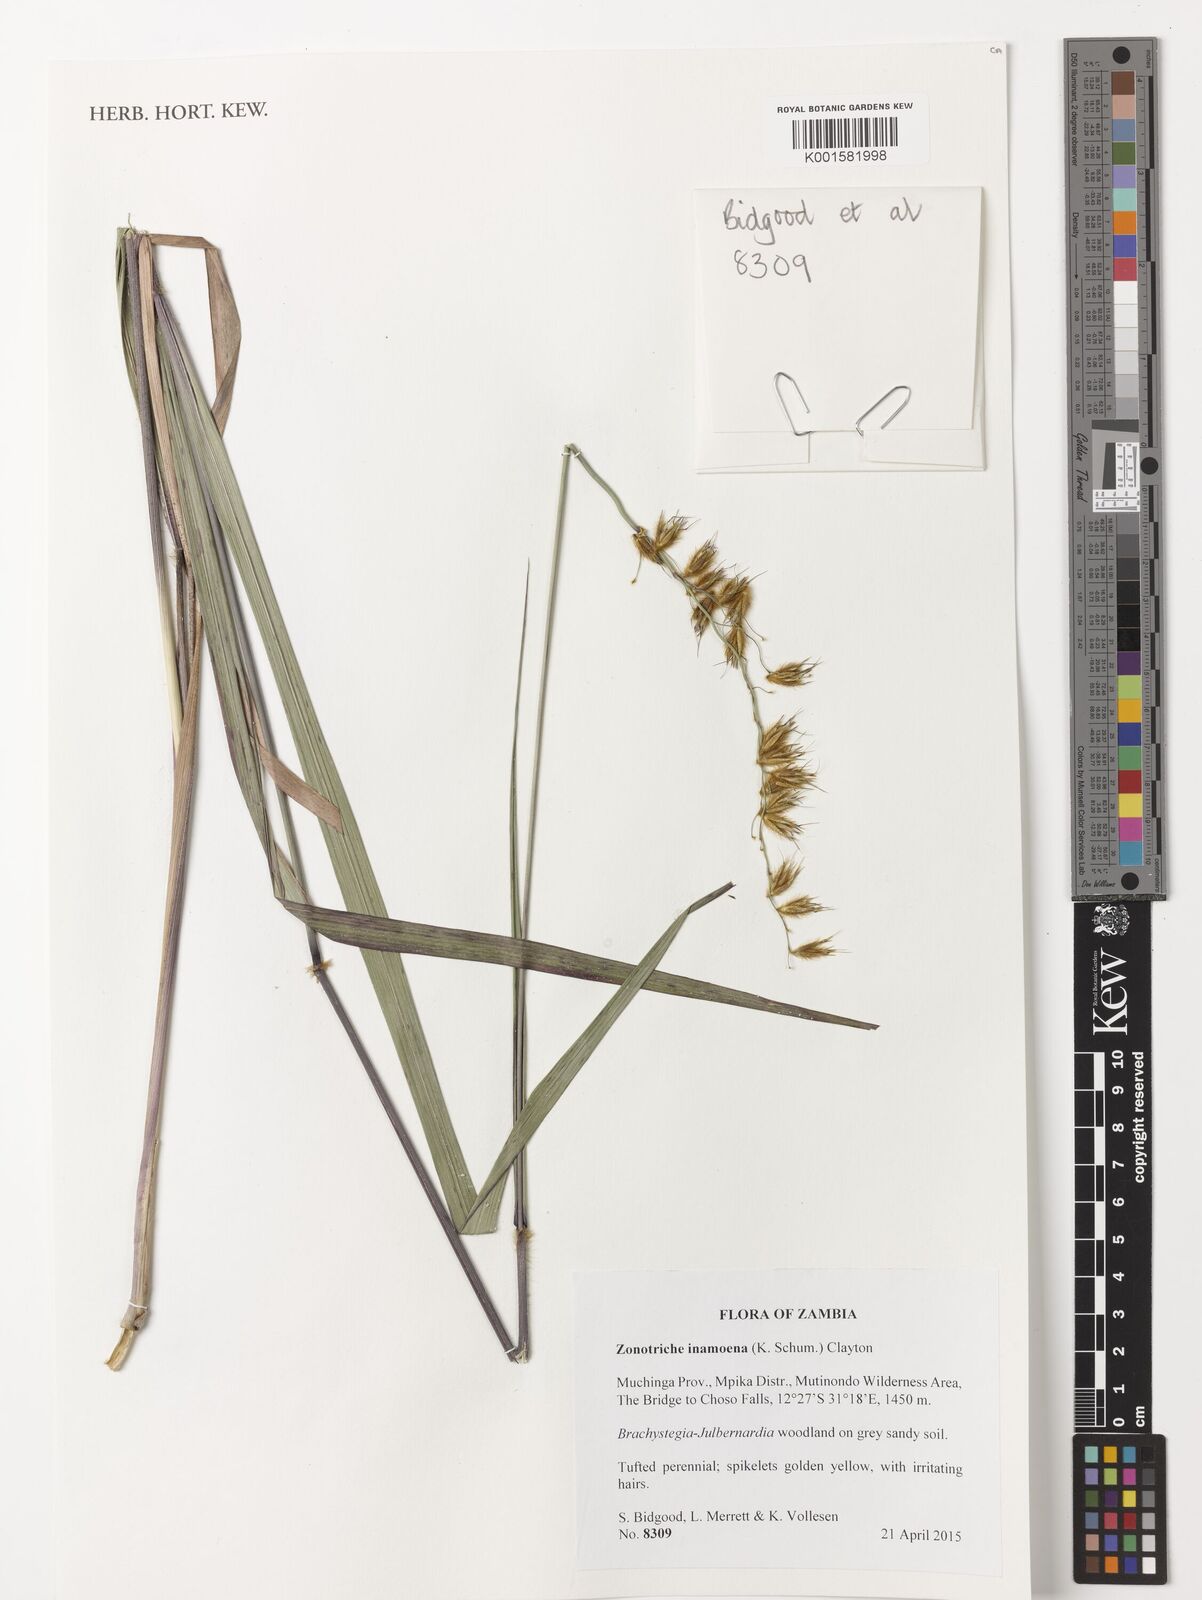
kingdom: Plantae
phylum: Tracheophyta
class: Liliopsida
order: Poales
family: Poaceae
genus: Zonotriche
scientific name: Zonotriche inamoena
